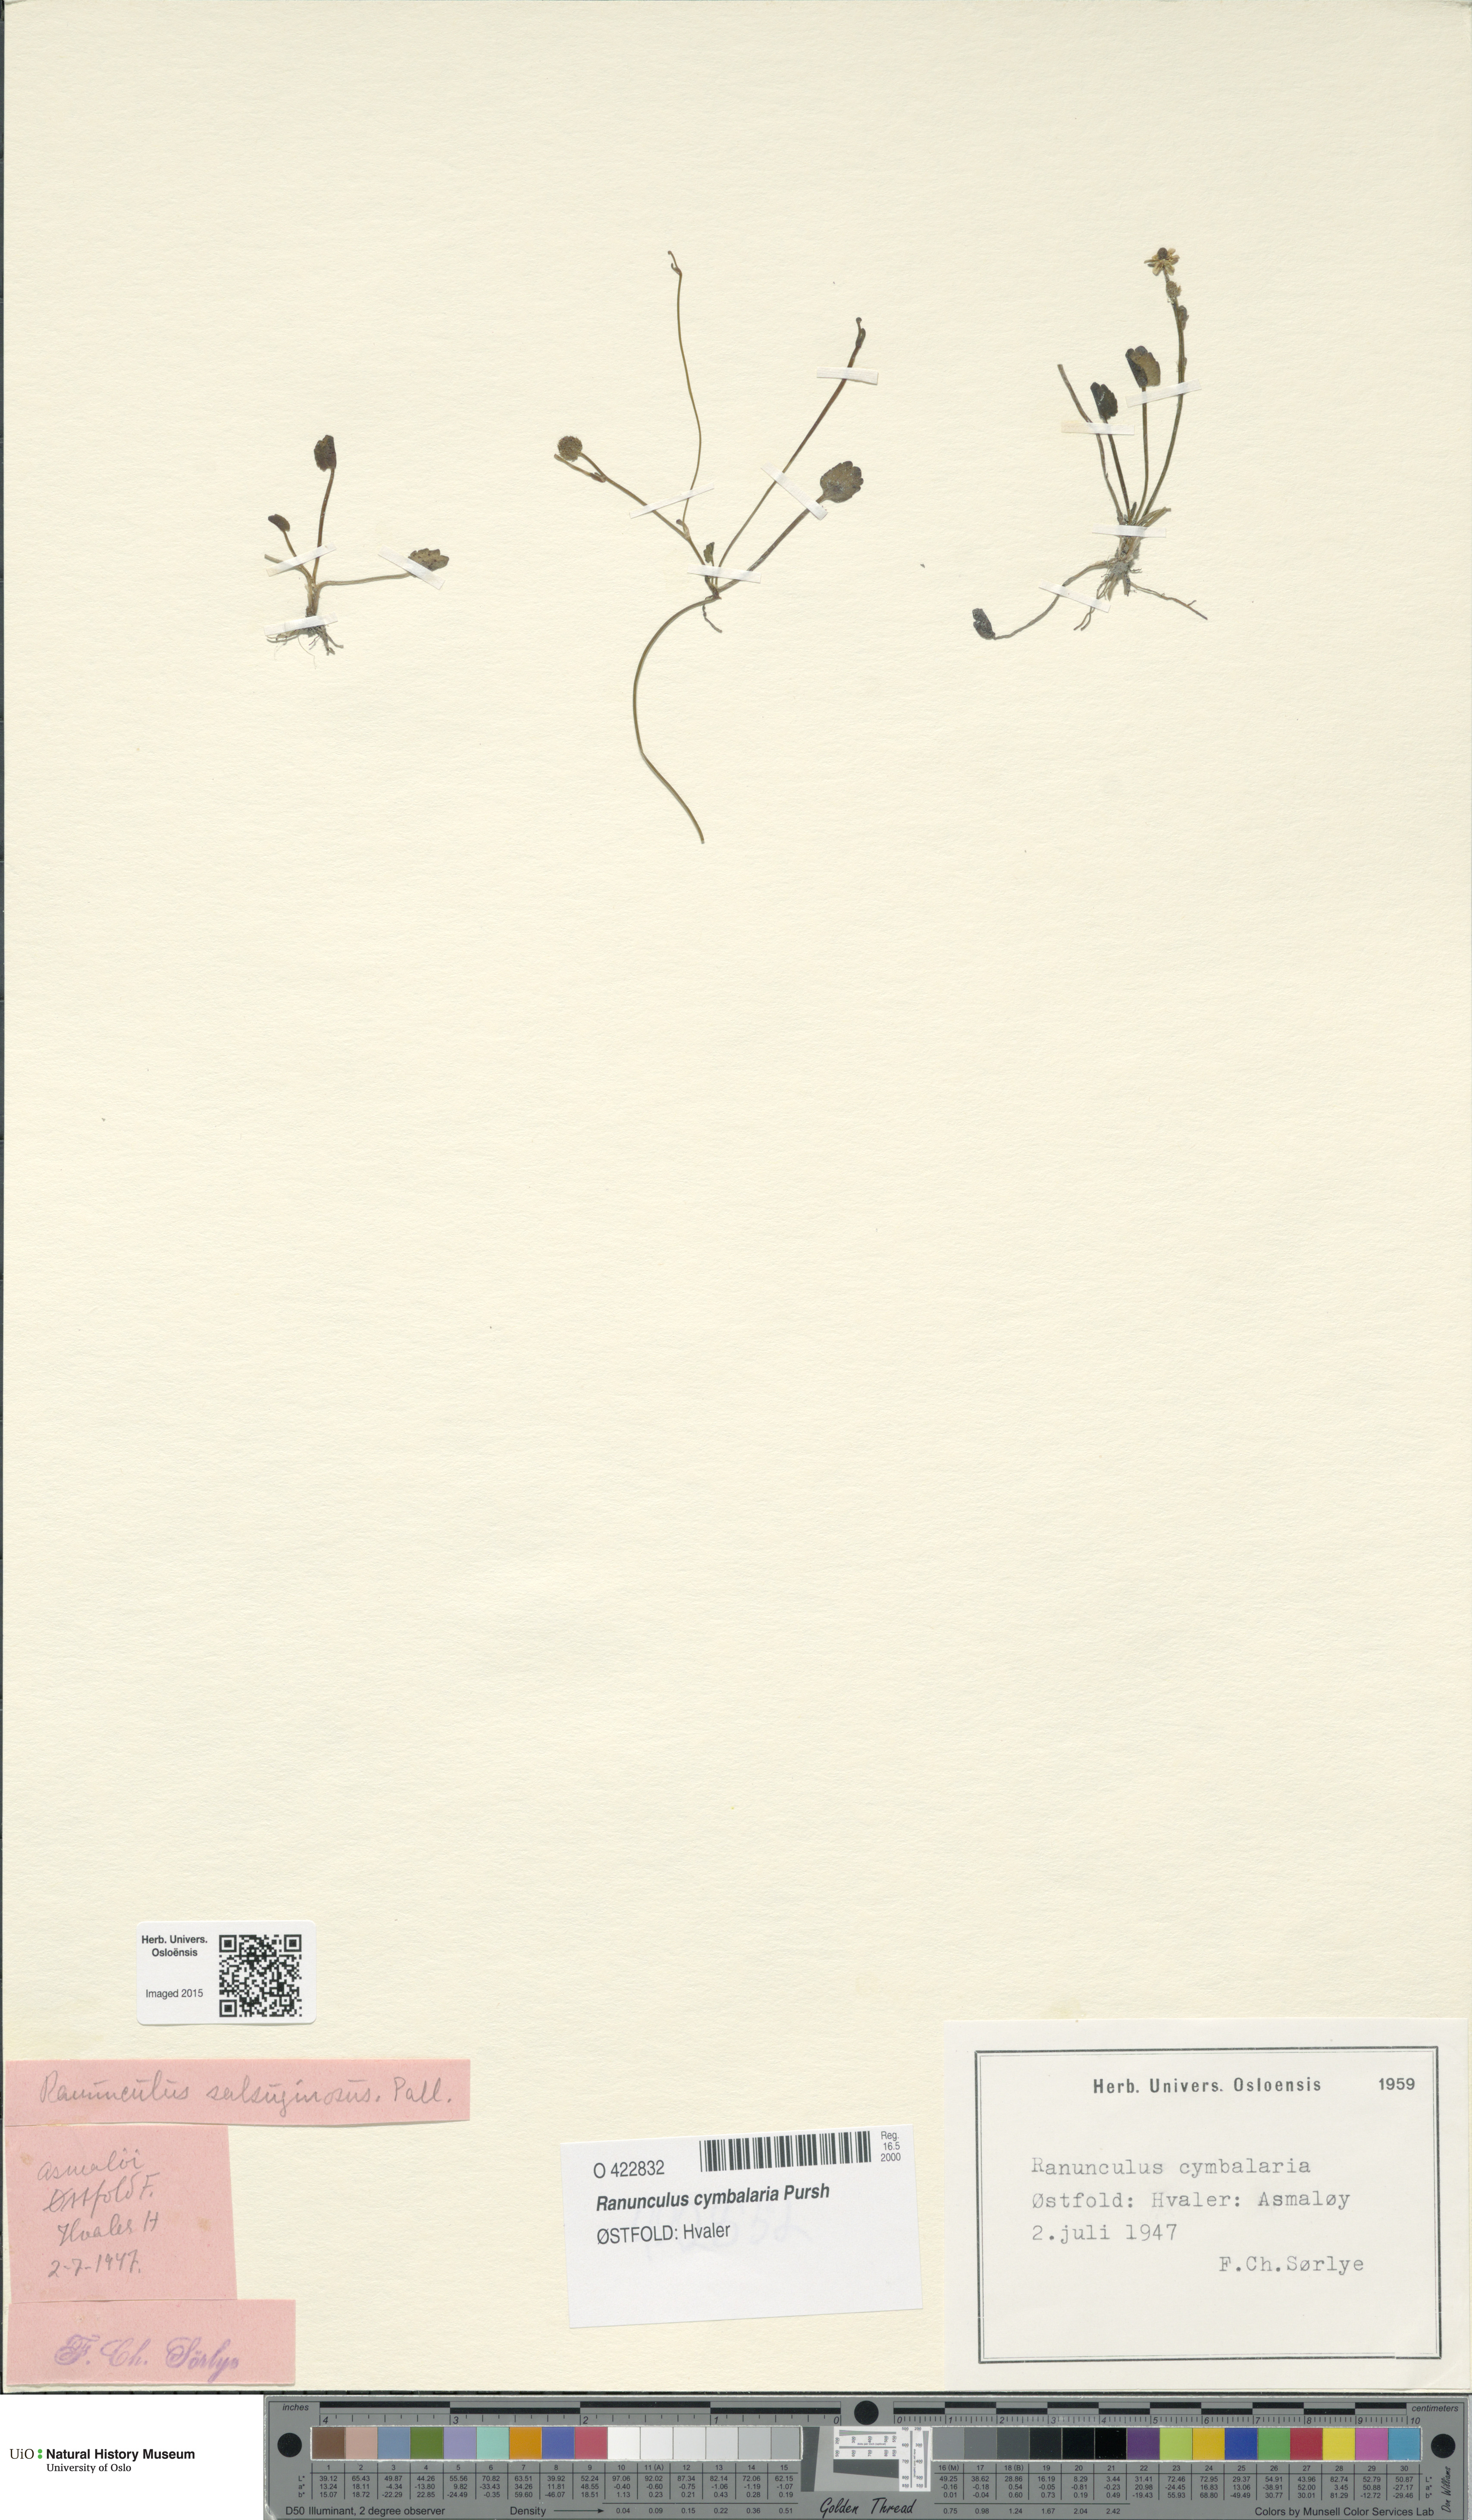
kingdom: Plantae
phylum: Tracheophyta
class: Magnoliopsida
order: Ranunculales
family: Ranunculaceae
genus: Halerpestes
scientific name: Halerpestes cymbalaria
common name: Seaside crowfoot
